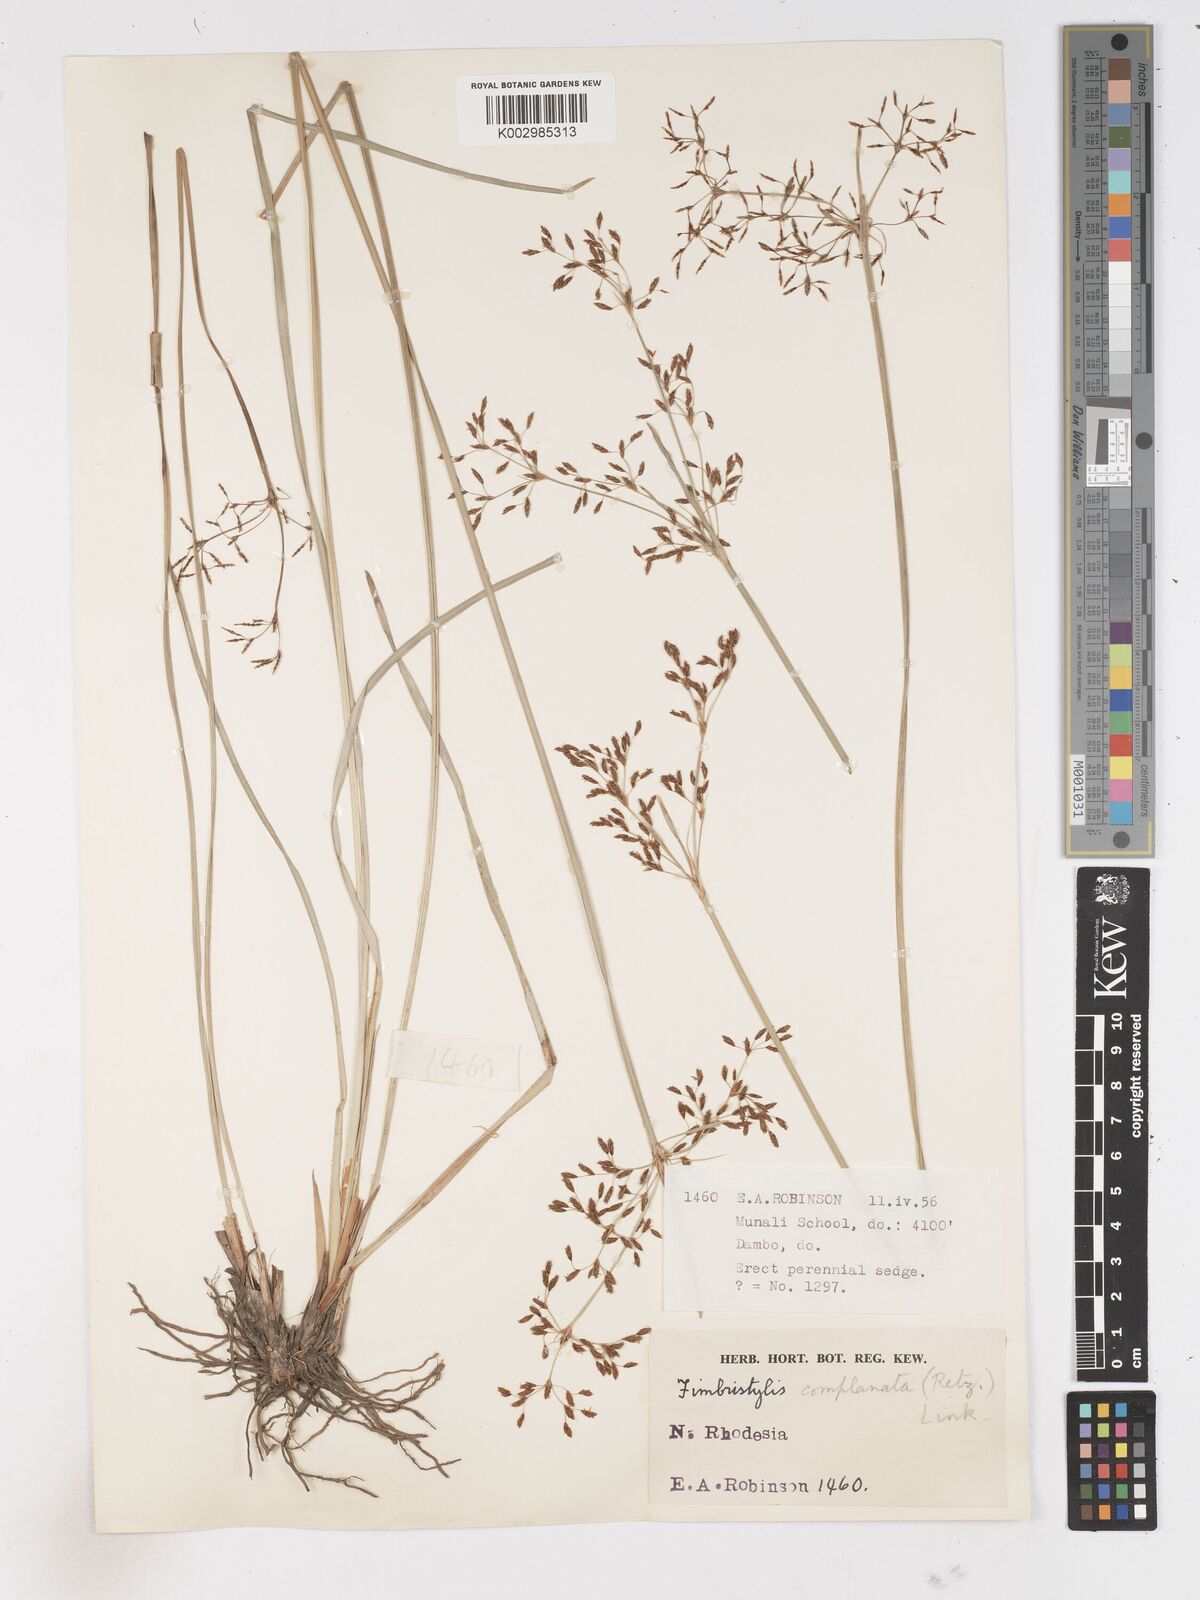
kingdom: Plantae
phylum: Tracheophyta
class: Liliopsida
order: Poales
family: Cyperaceae
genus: Fimbristylis
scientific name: Fimbristylis complanata
